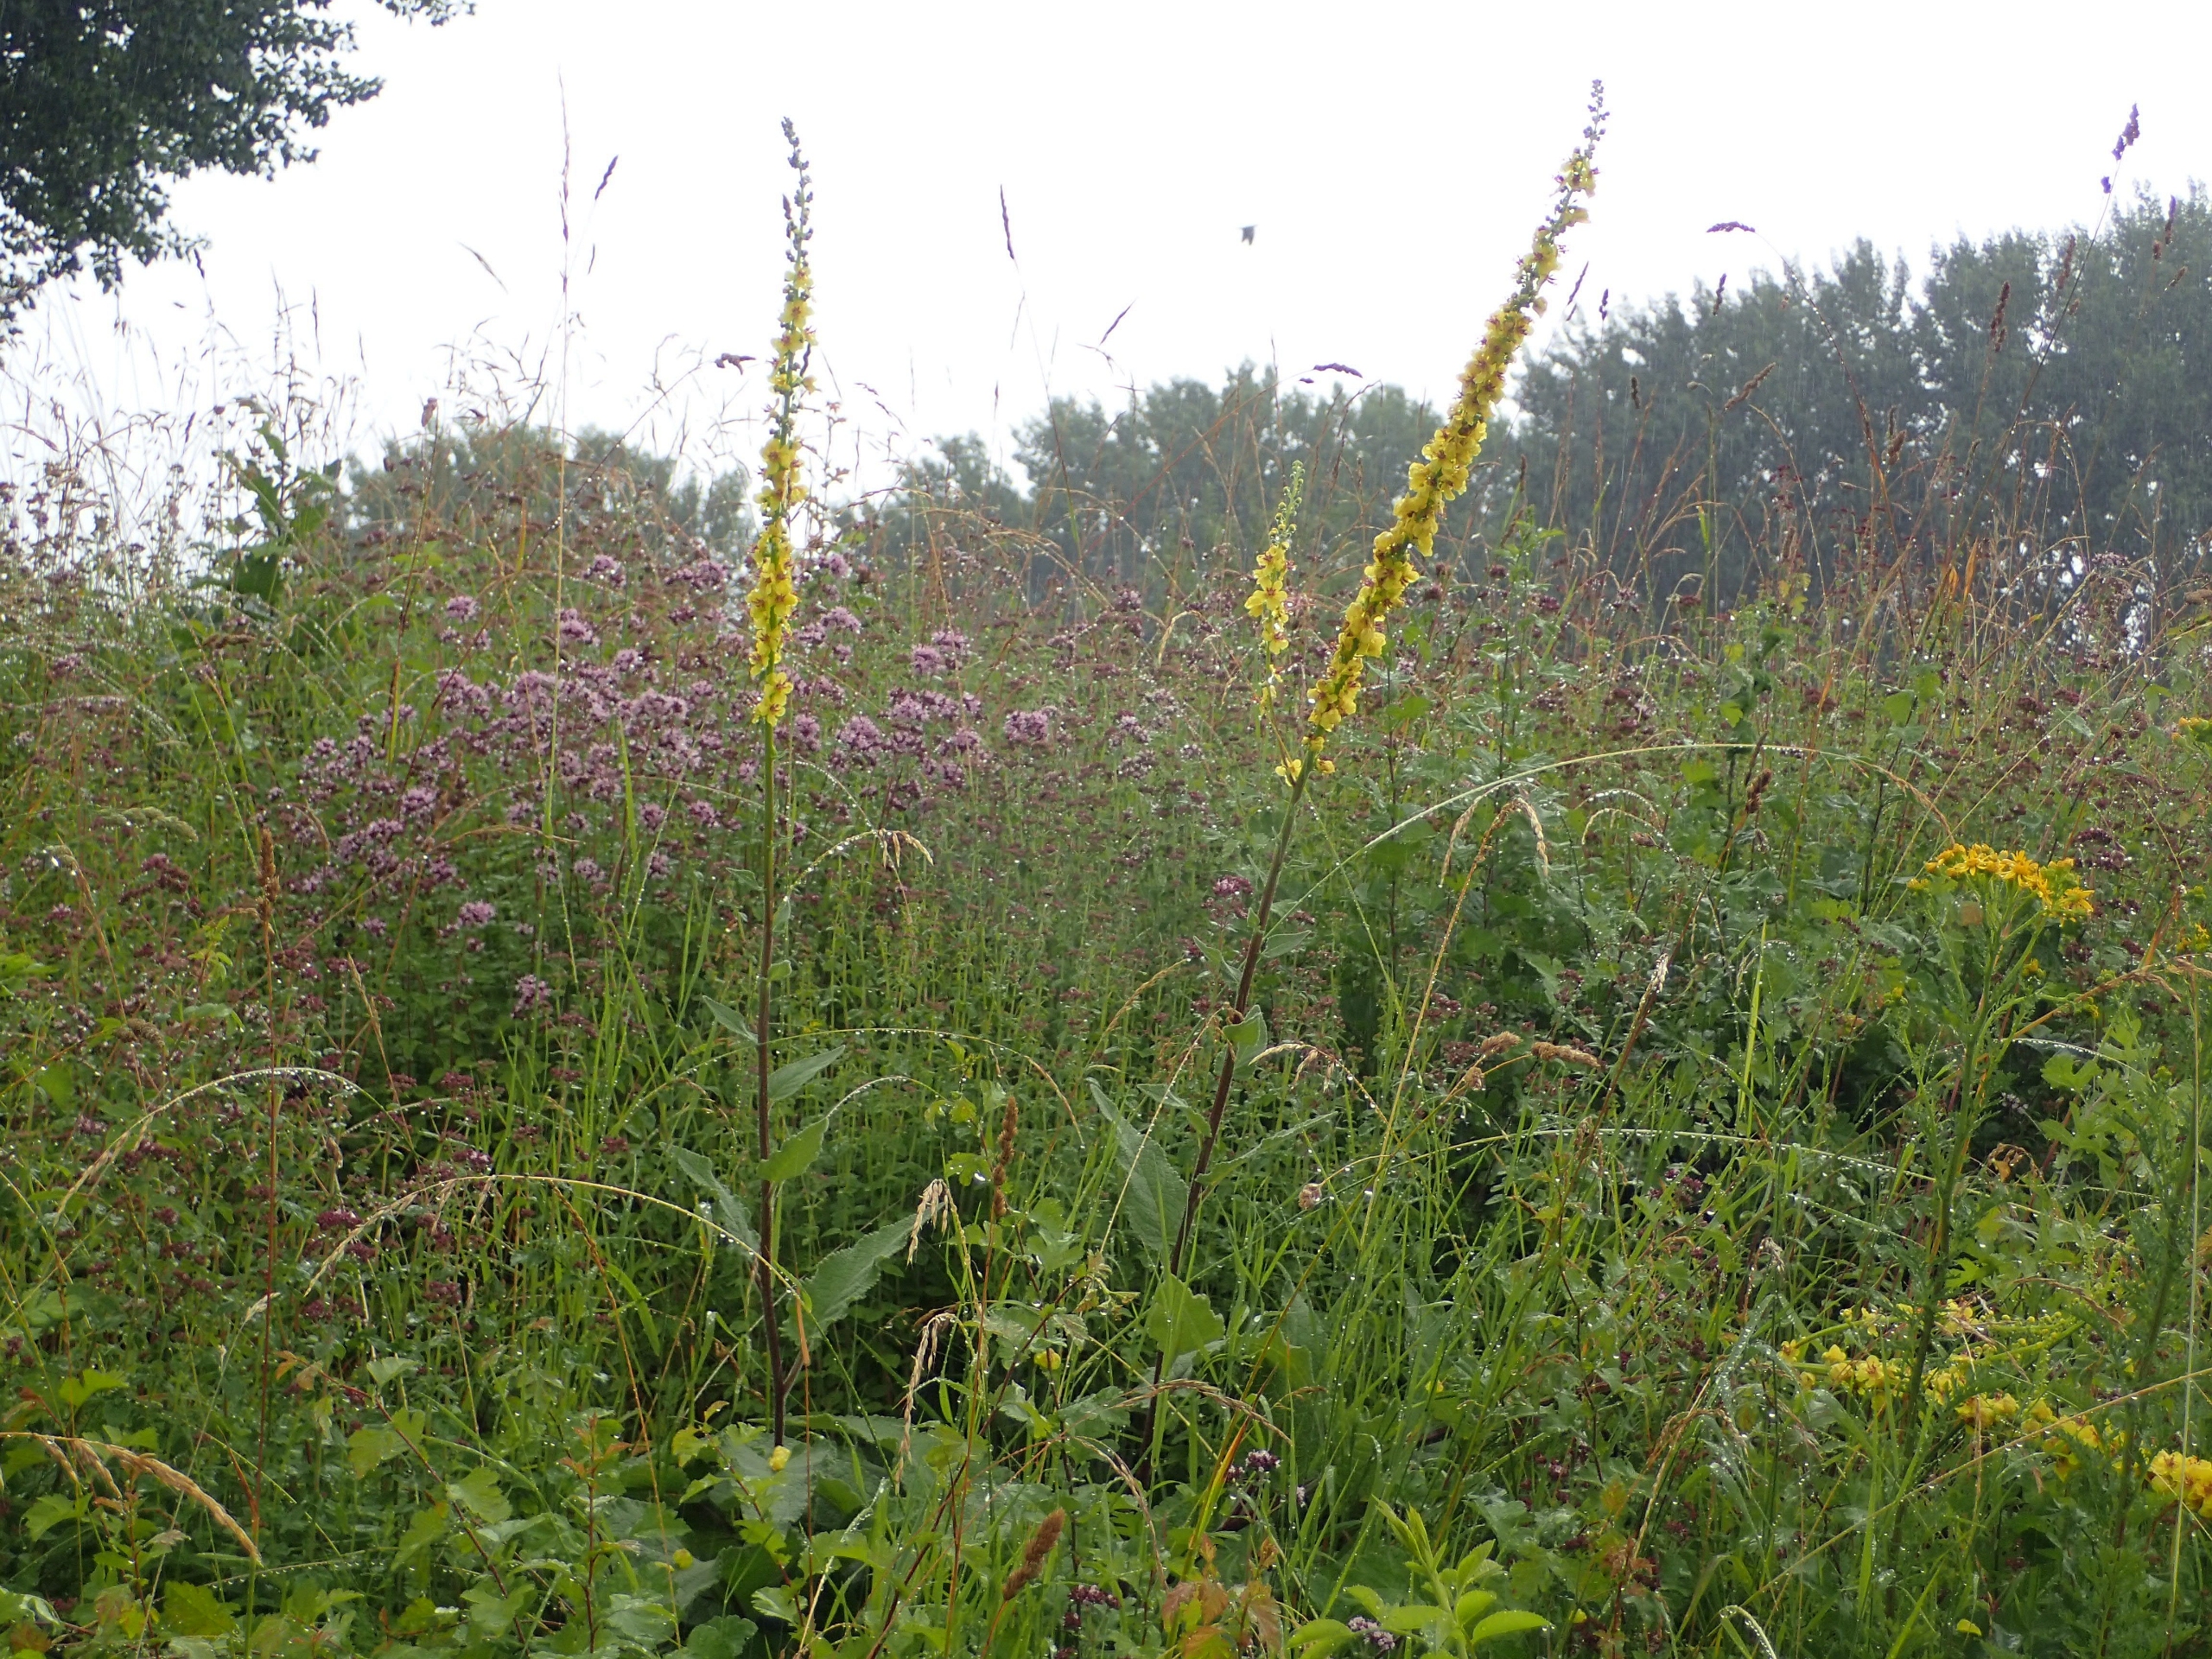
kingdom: Plantae
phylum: Tracheophyta
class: Magnoliopsida
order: Lamiales
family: Scrophulariaceae
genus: Verbascum
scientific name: Verbascum nigrum
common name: Mørk kongelys
